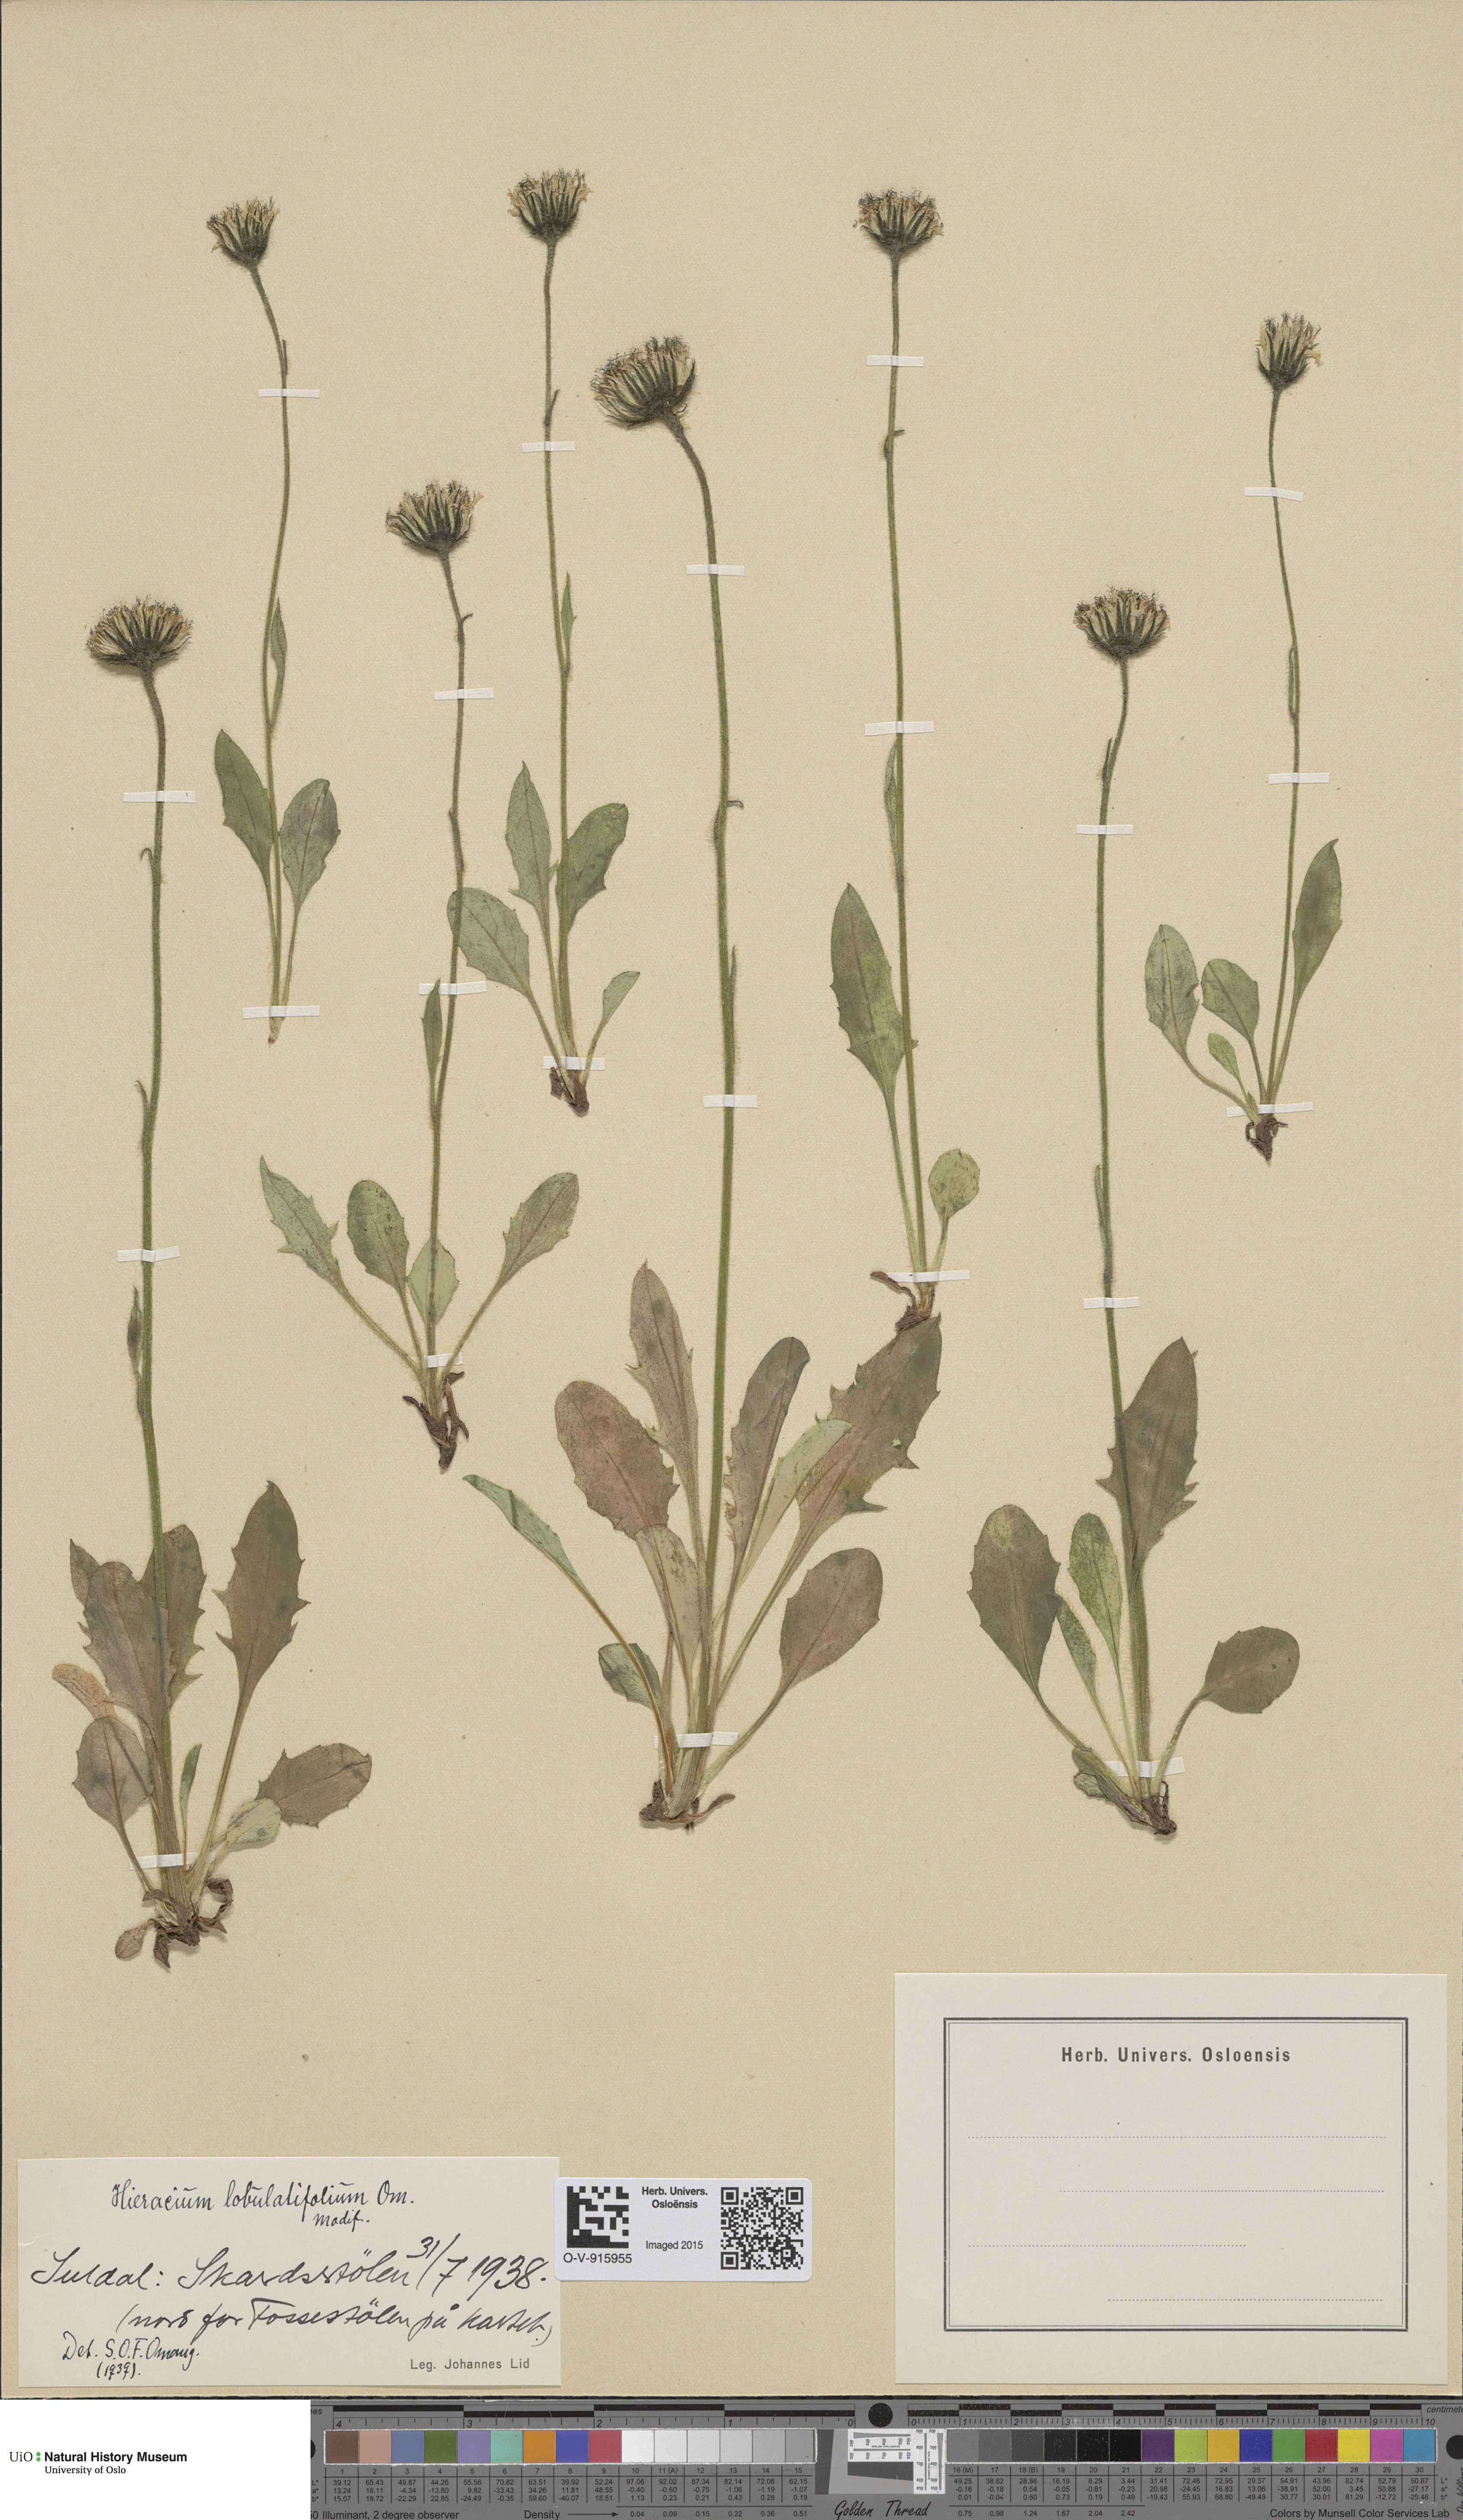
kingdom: Plantae
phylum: Tracheophyta
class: Magnoliopsida
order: Asterales
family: Asteraceae
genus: Hieracium
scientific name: Hieracium
